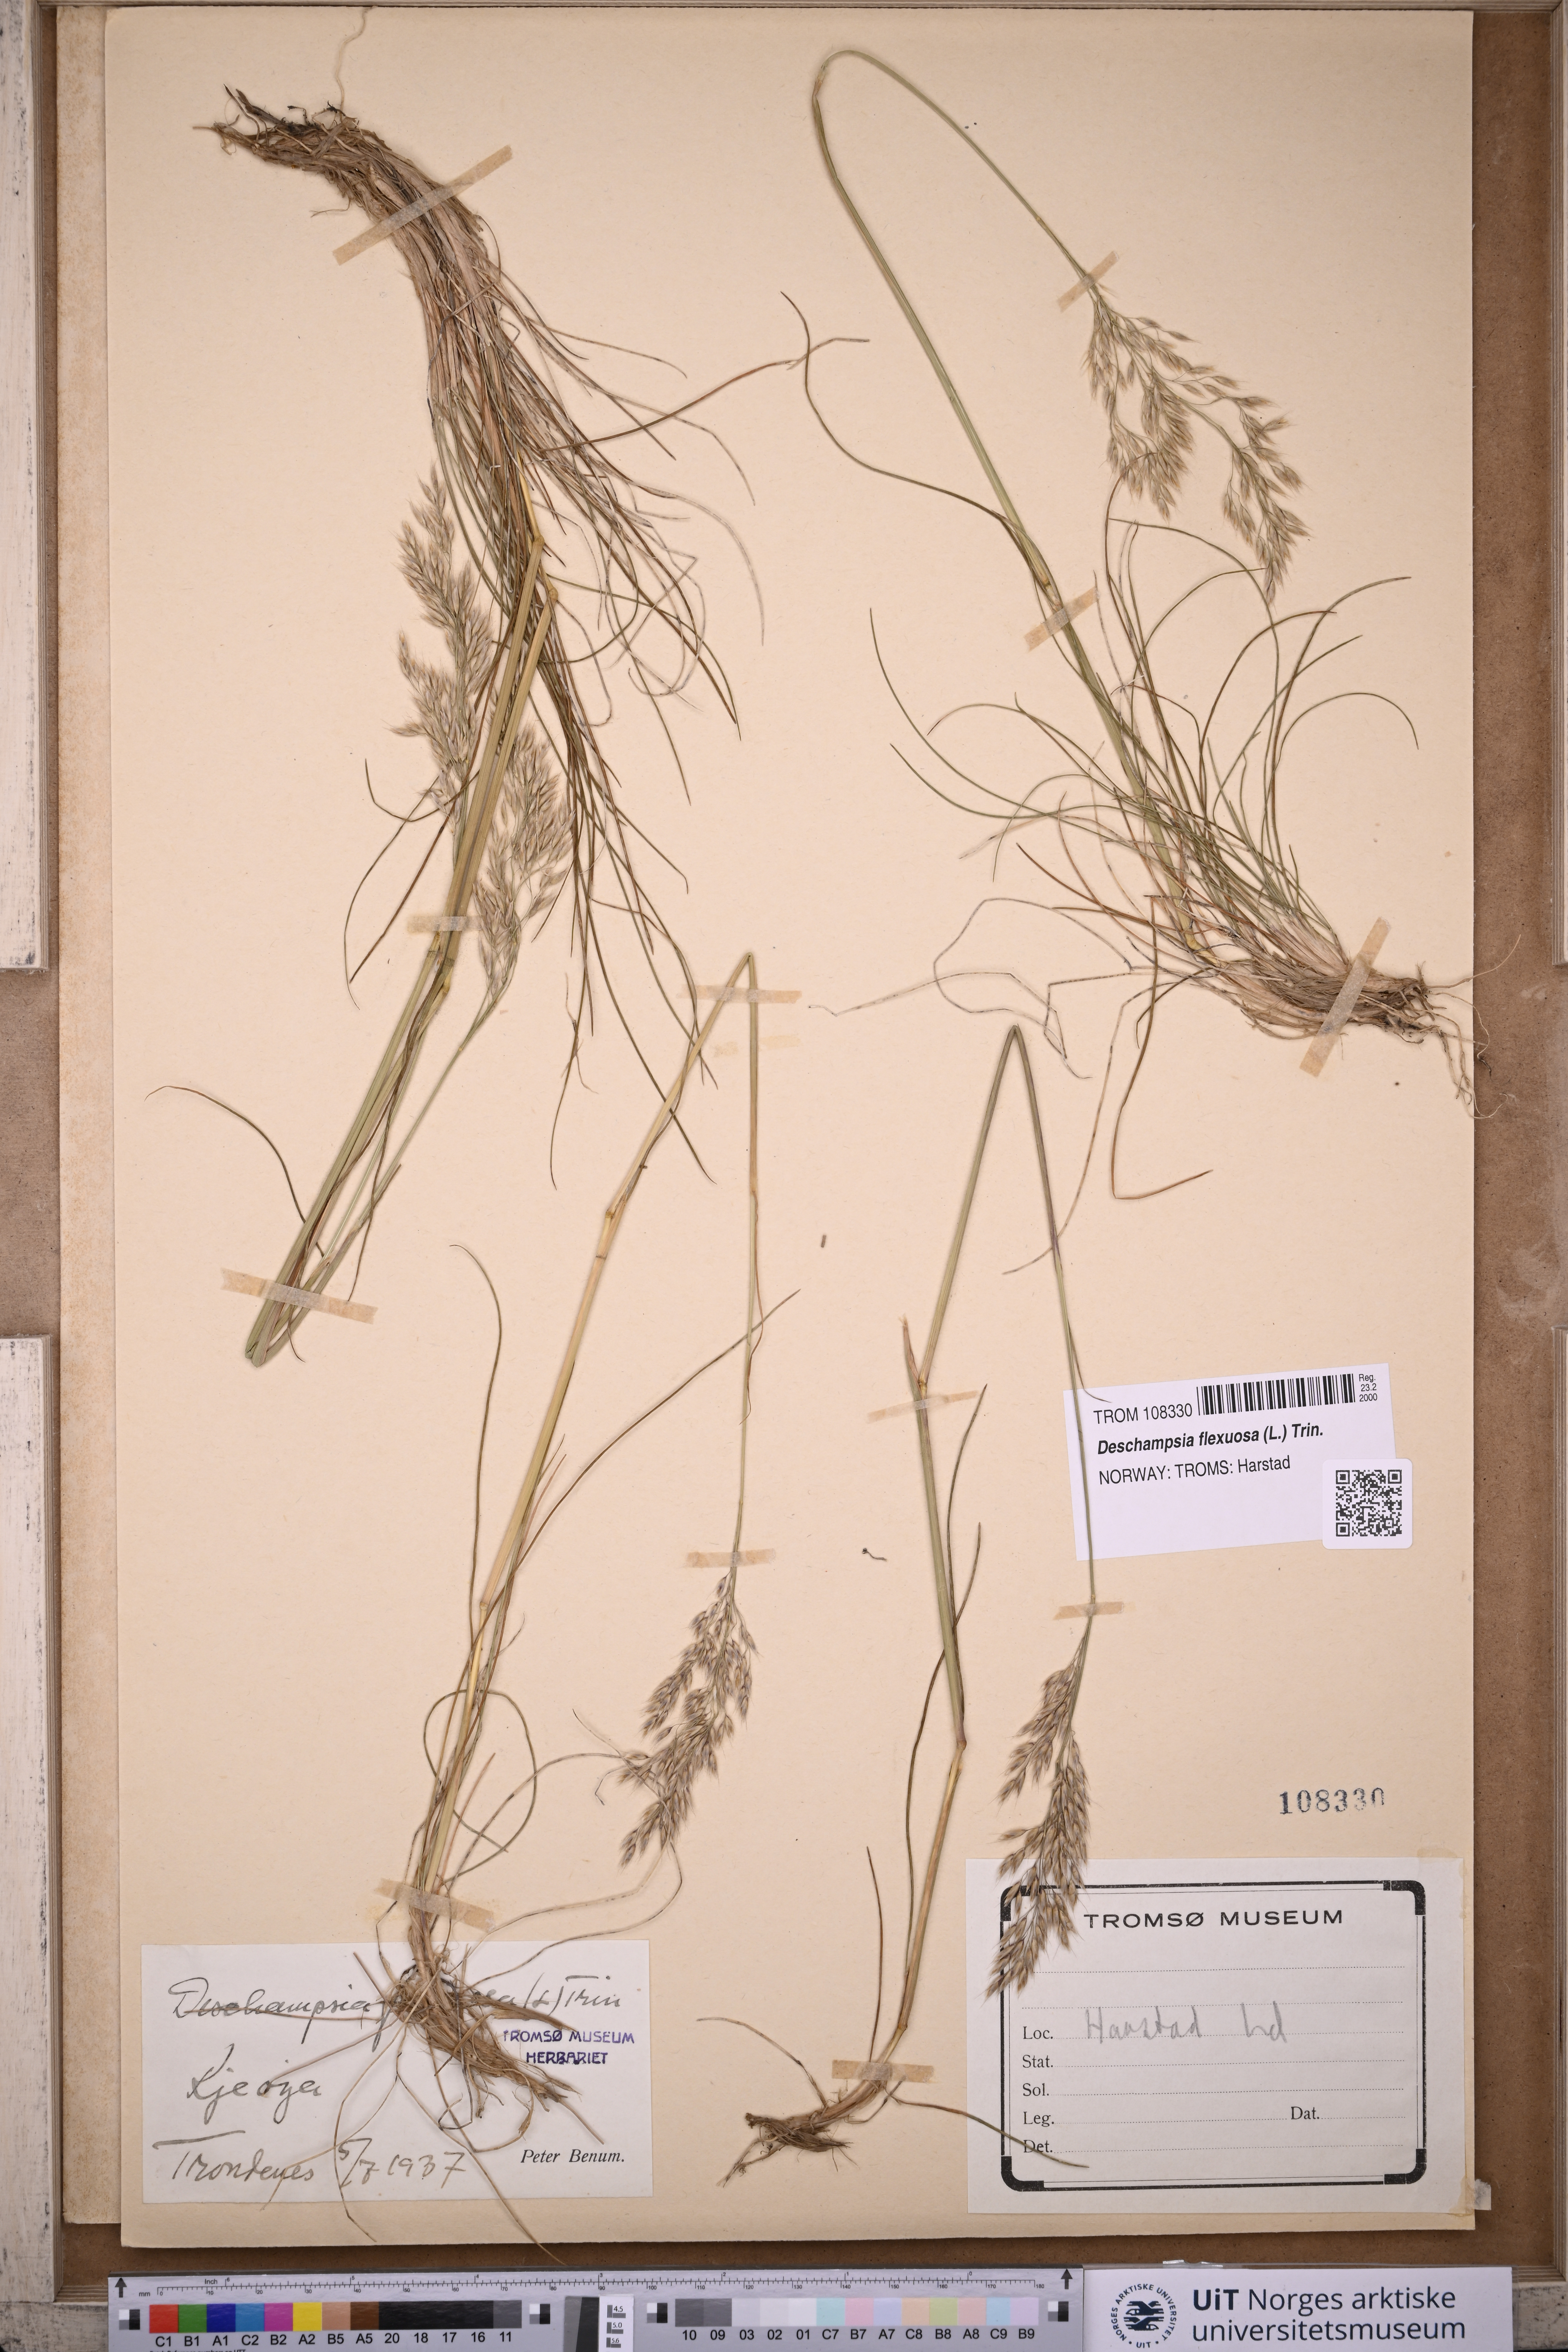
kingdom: Plantae
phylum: Tracheophyta
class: Liliopsida
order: Poales
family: Poaceae
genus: Avenella
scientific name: Avenella flexuosa
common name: Wavy hairgrass
